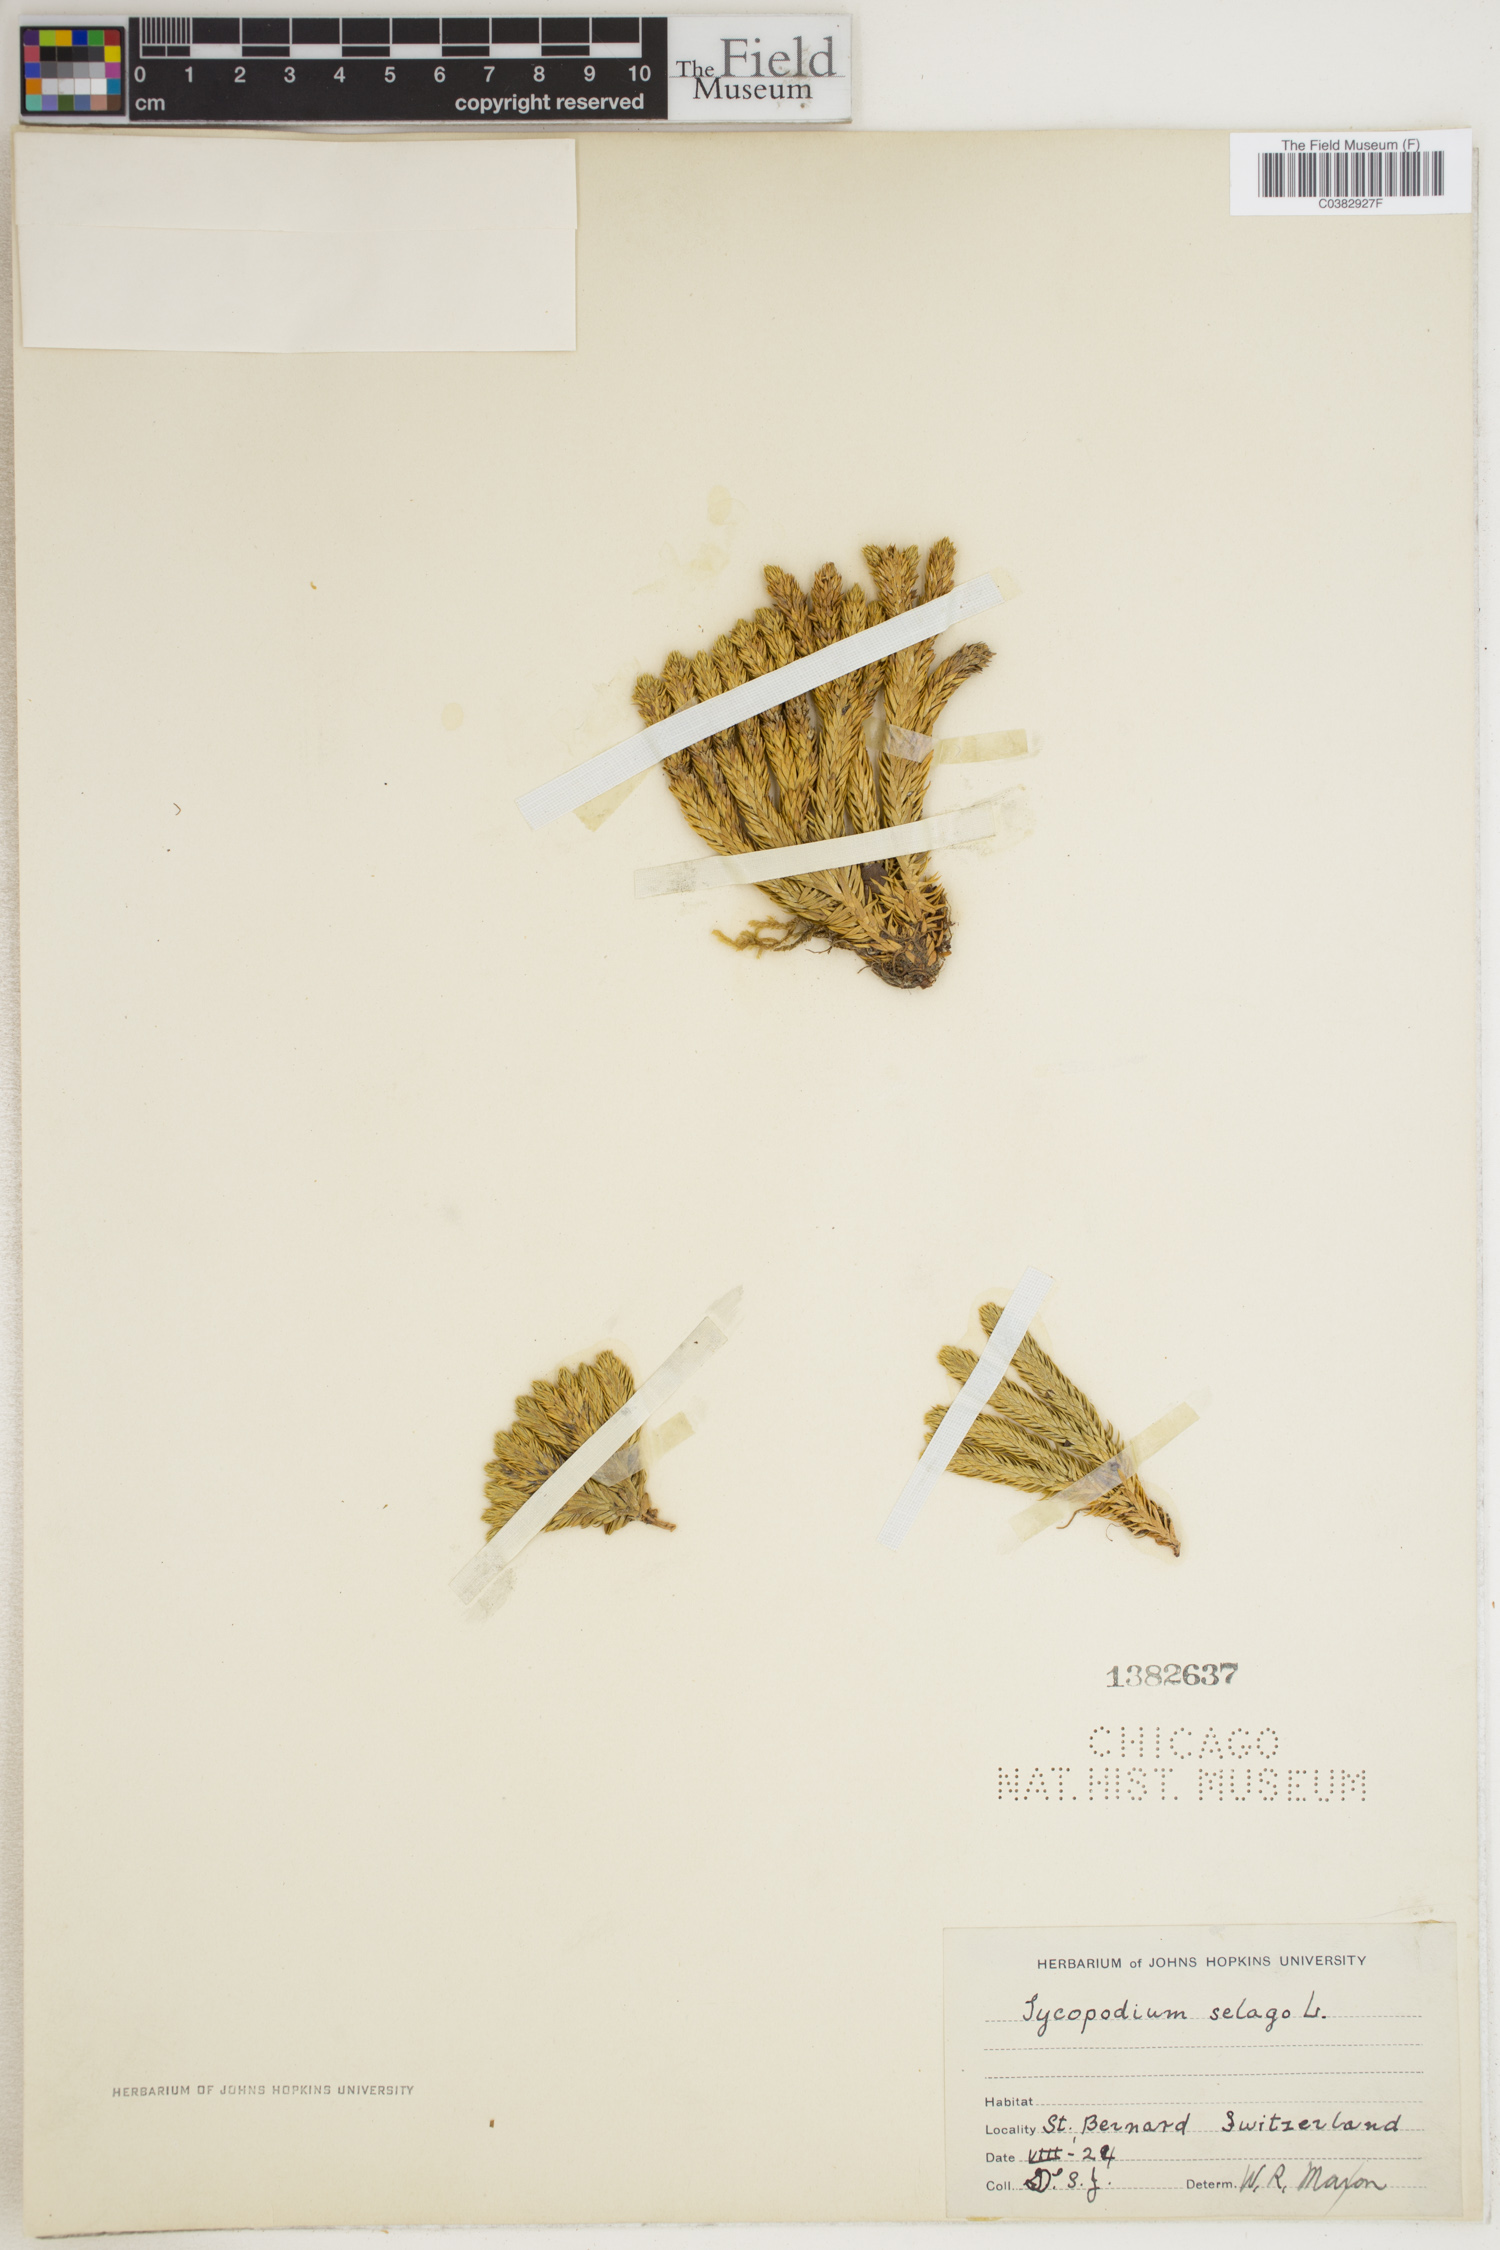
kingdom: Plantae
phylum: Tracheophyta
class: Lycopodiopsida
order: Lycopodiales
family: Lycopodiaceae
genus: Huperzia
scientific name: Huperzia selago
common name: Northern firmoss
